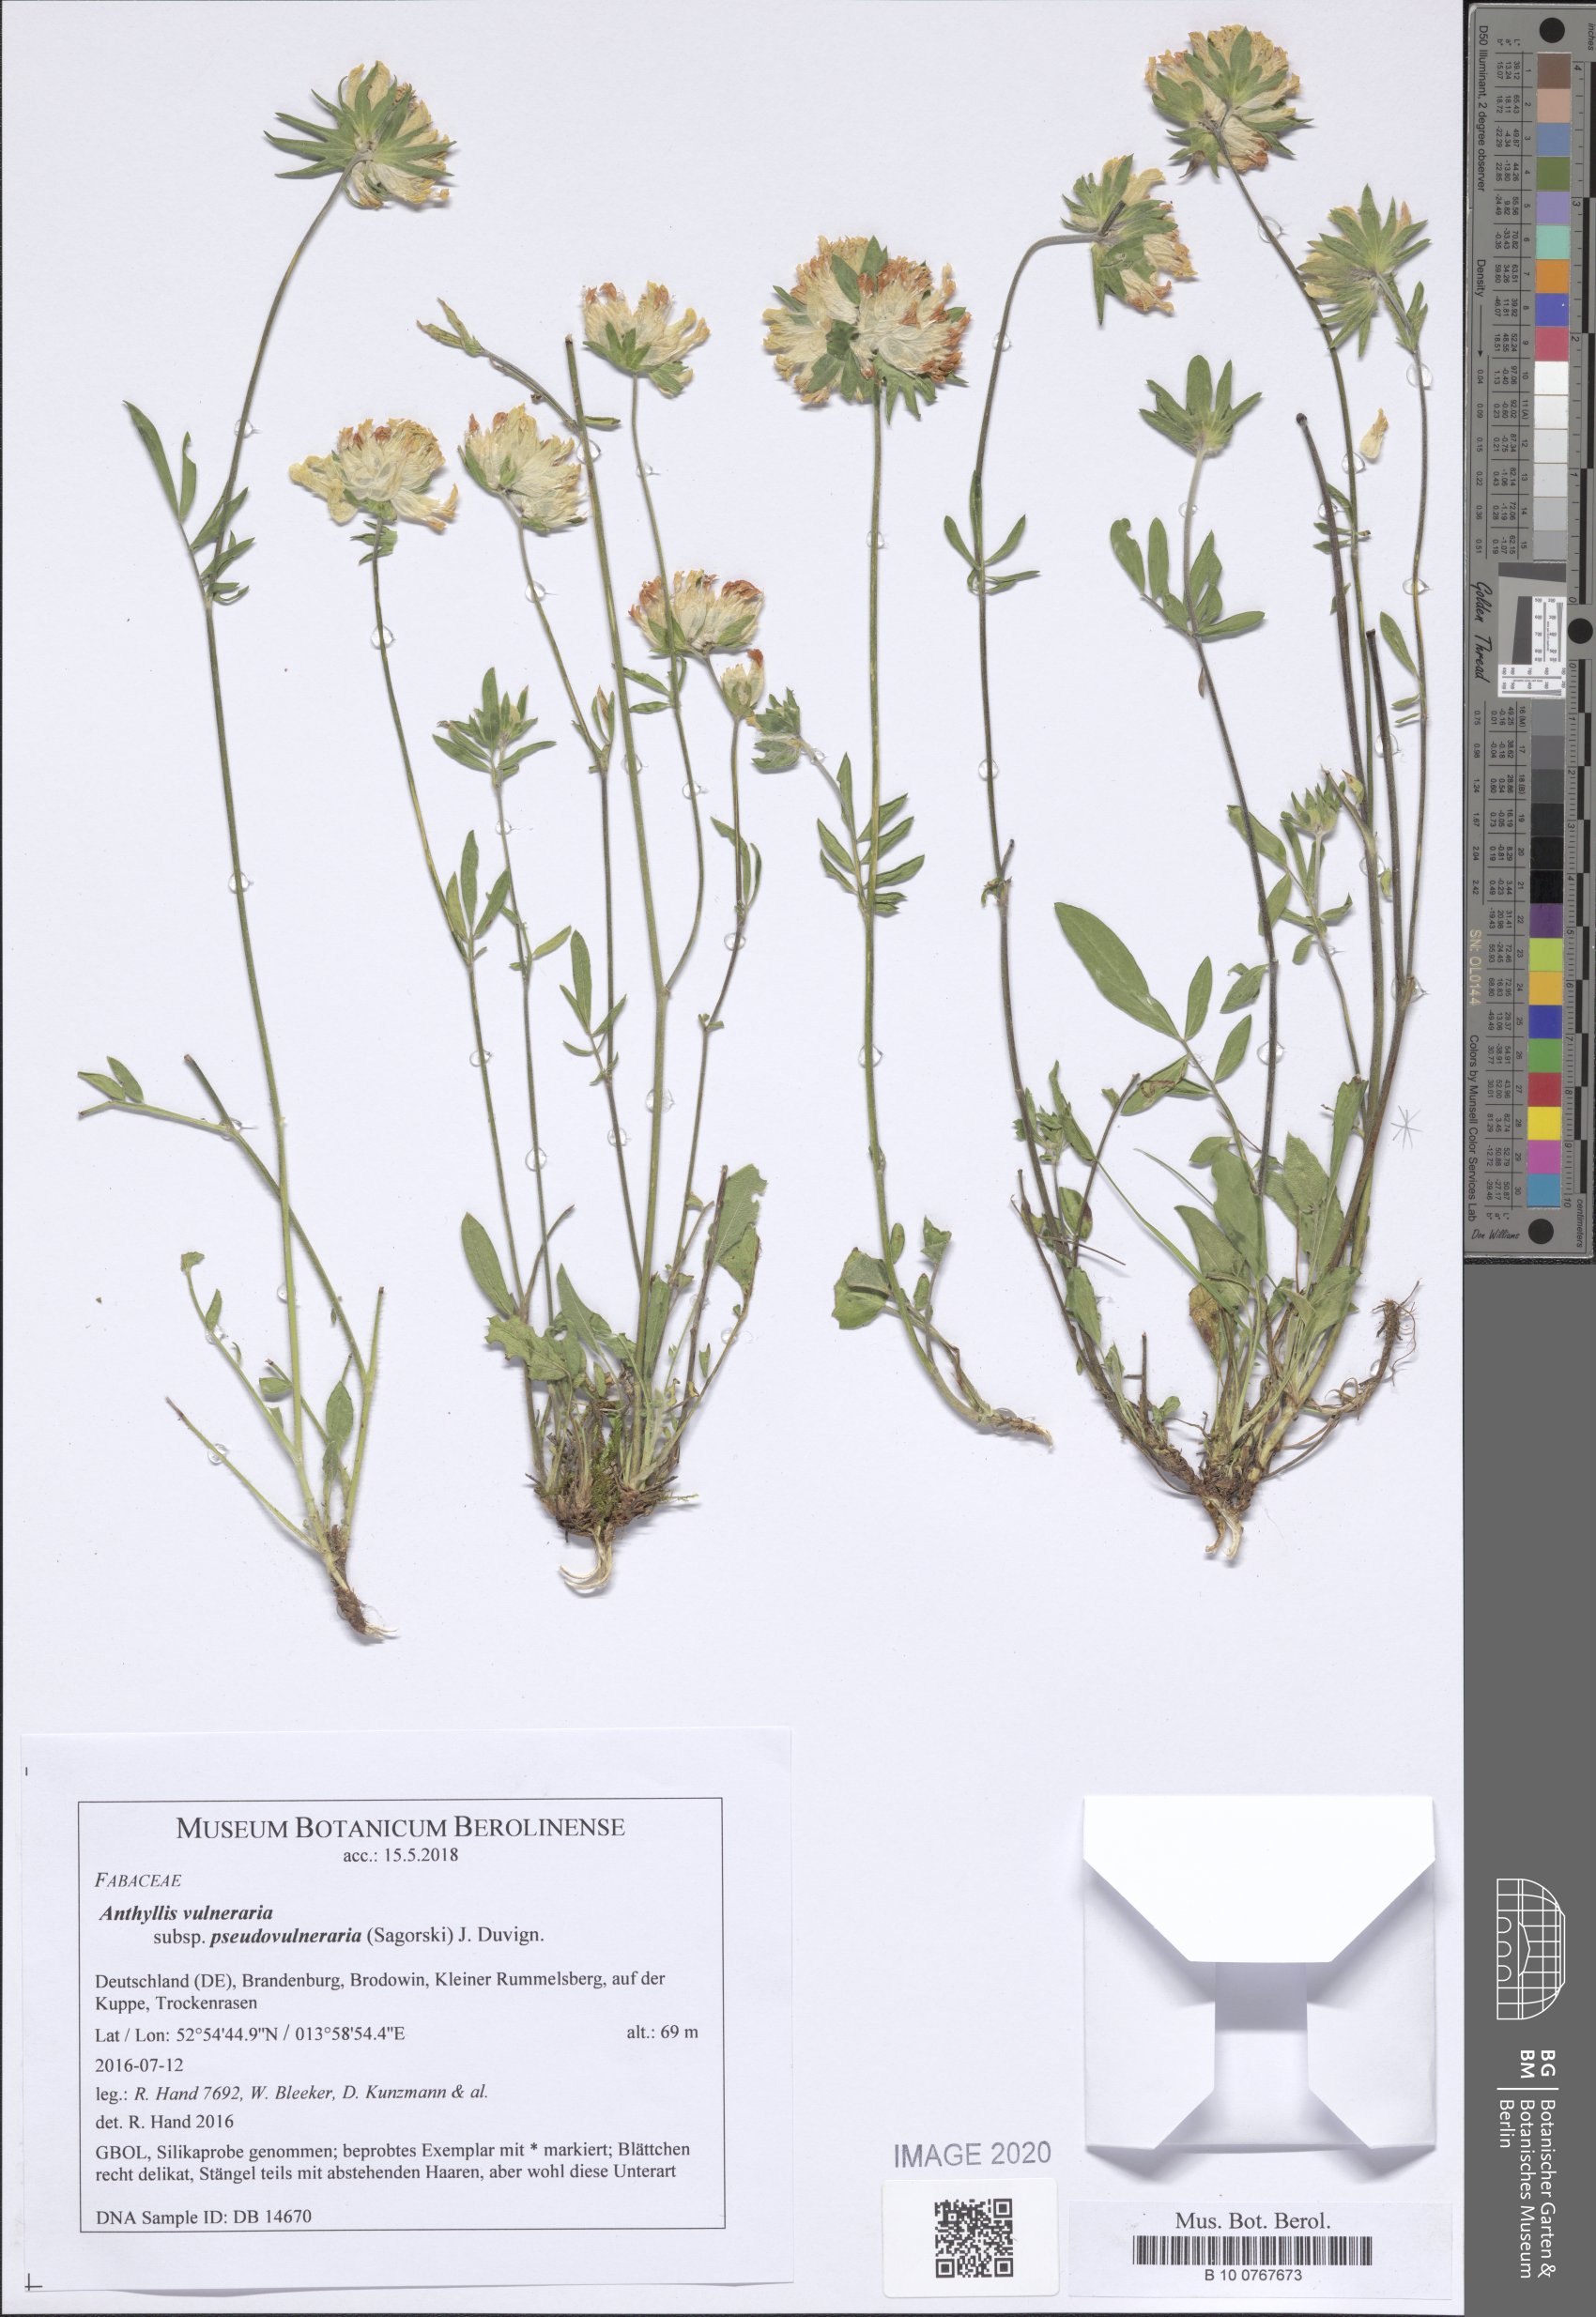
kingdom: Plantae
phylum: Tracheophyta
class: Magnoliopsida
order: Fabales
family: Fabaceae
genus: Anthyllis
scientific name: Anthyllis vulneraria
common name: Kidney vetch
